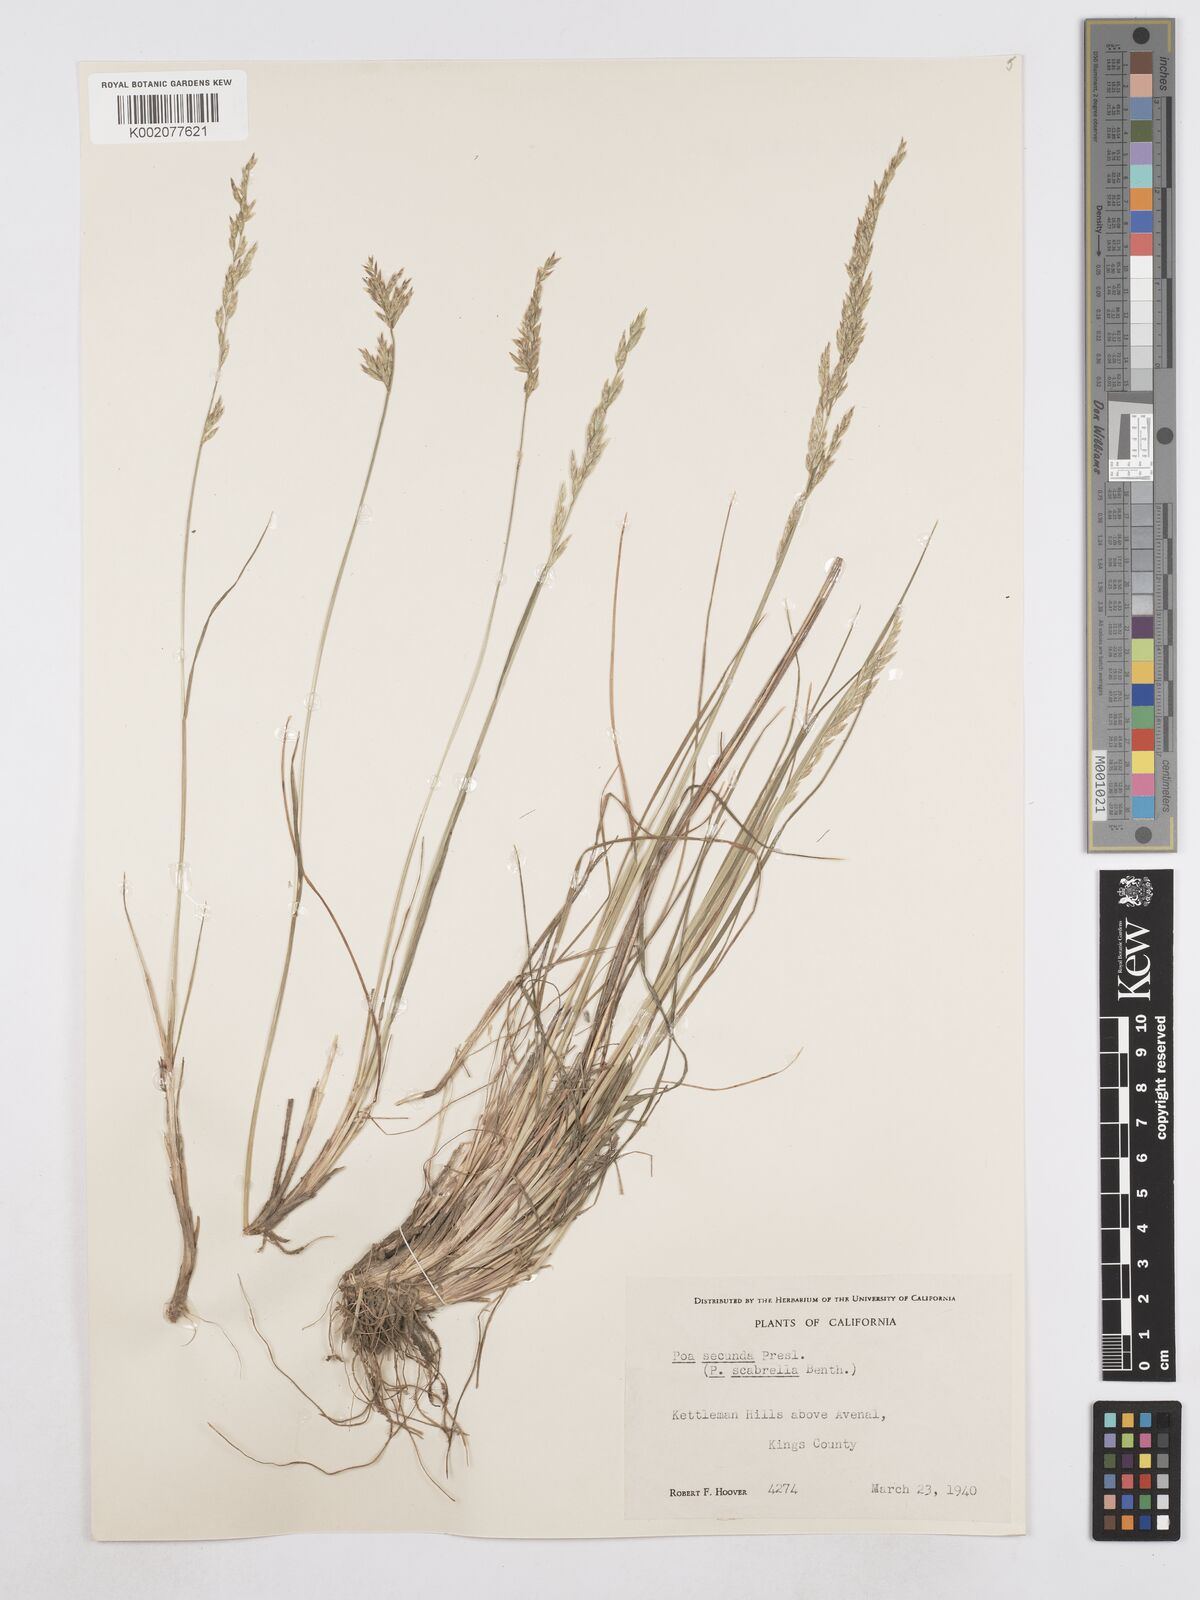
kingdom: Plantae
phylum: Tracheophyta
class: Liliopsida
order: Poales
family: Poaceae
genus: Poa
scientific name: Poa secunda
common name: Sandberg bluegrass
